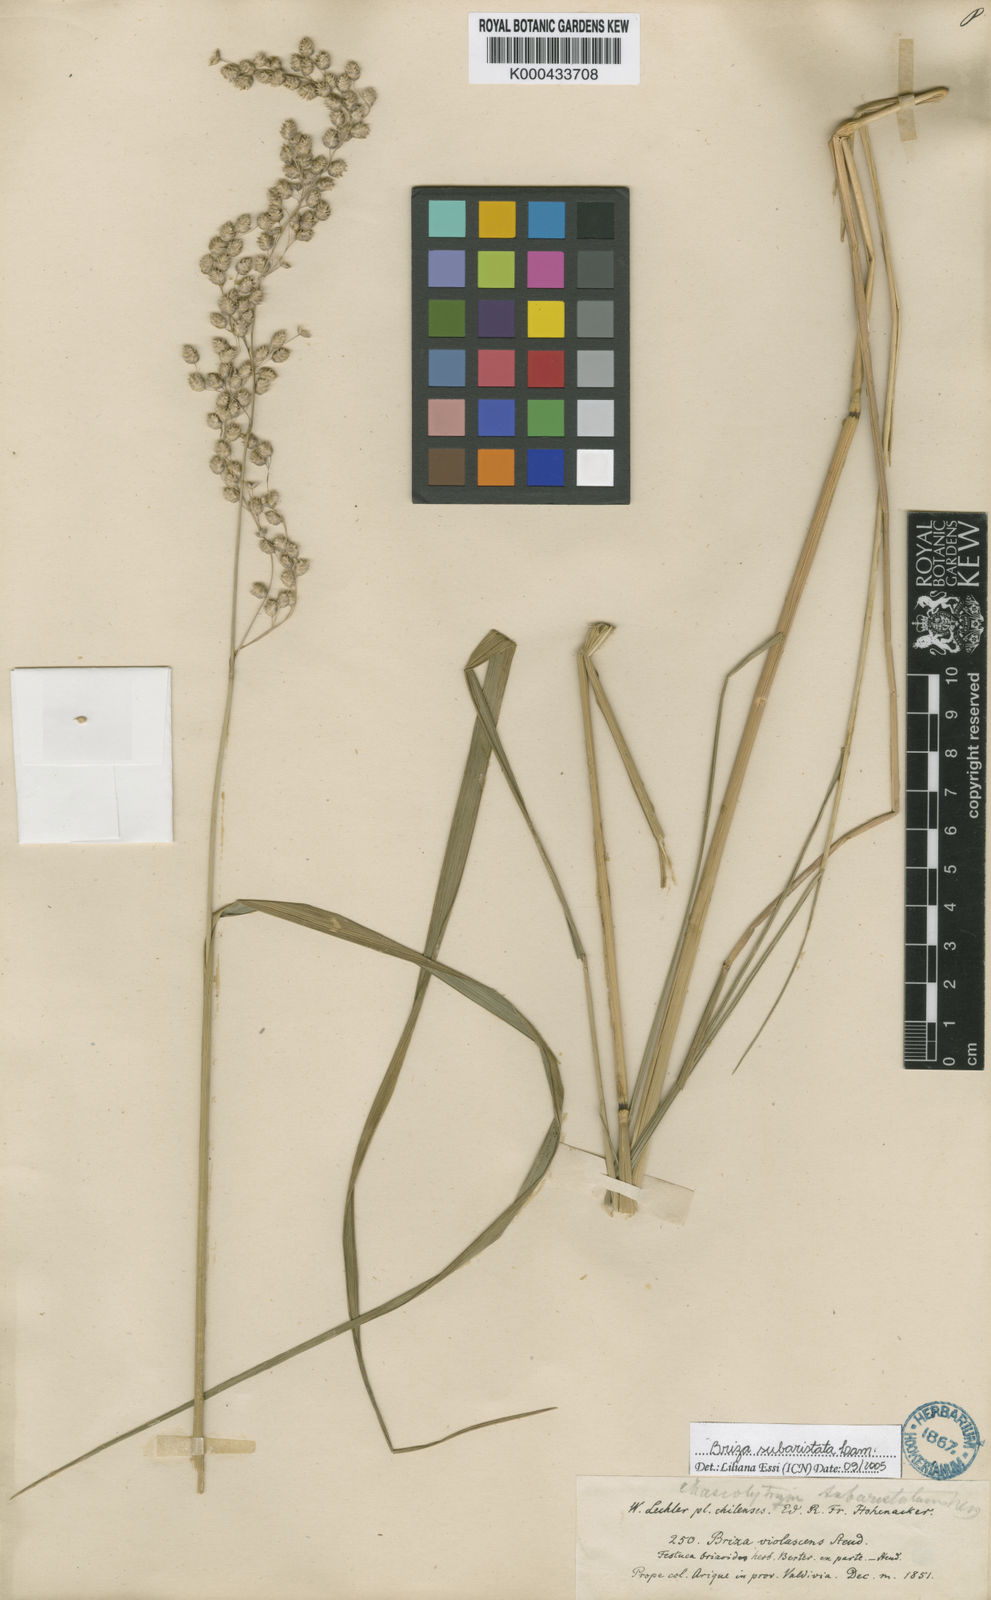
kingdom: Plantae
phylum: Tracheophyta
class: Liliopsida
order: Poales
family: Poaceae
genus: Chascolytrum
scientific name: Chascolytrum subaristatum
